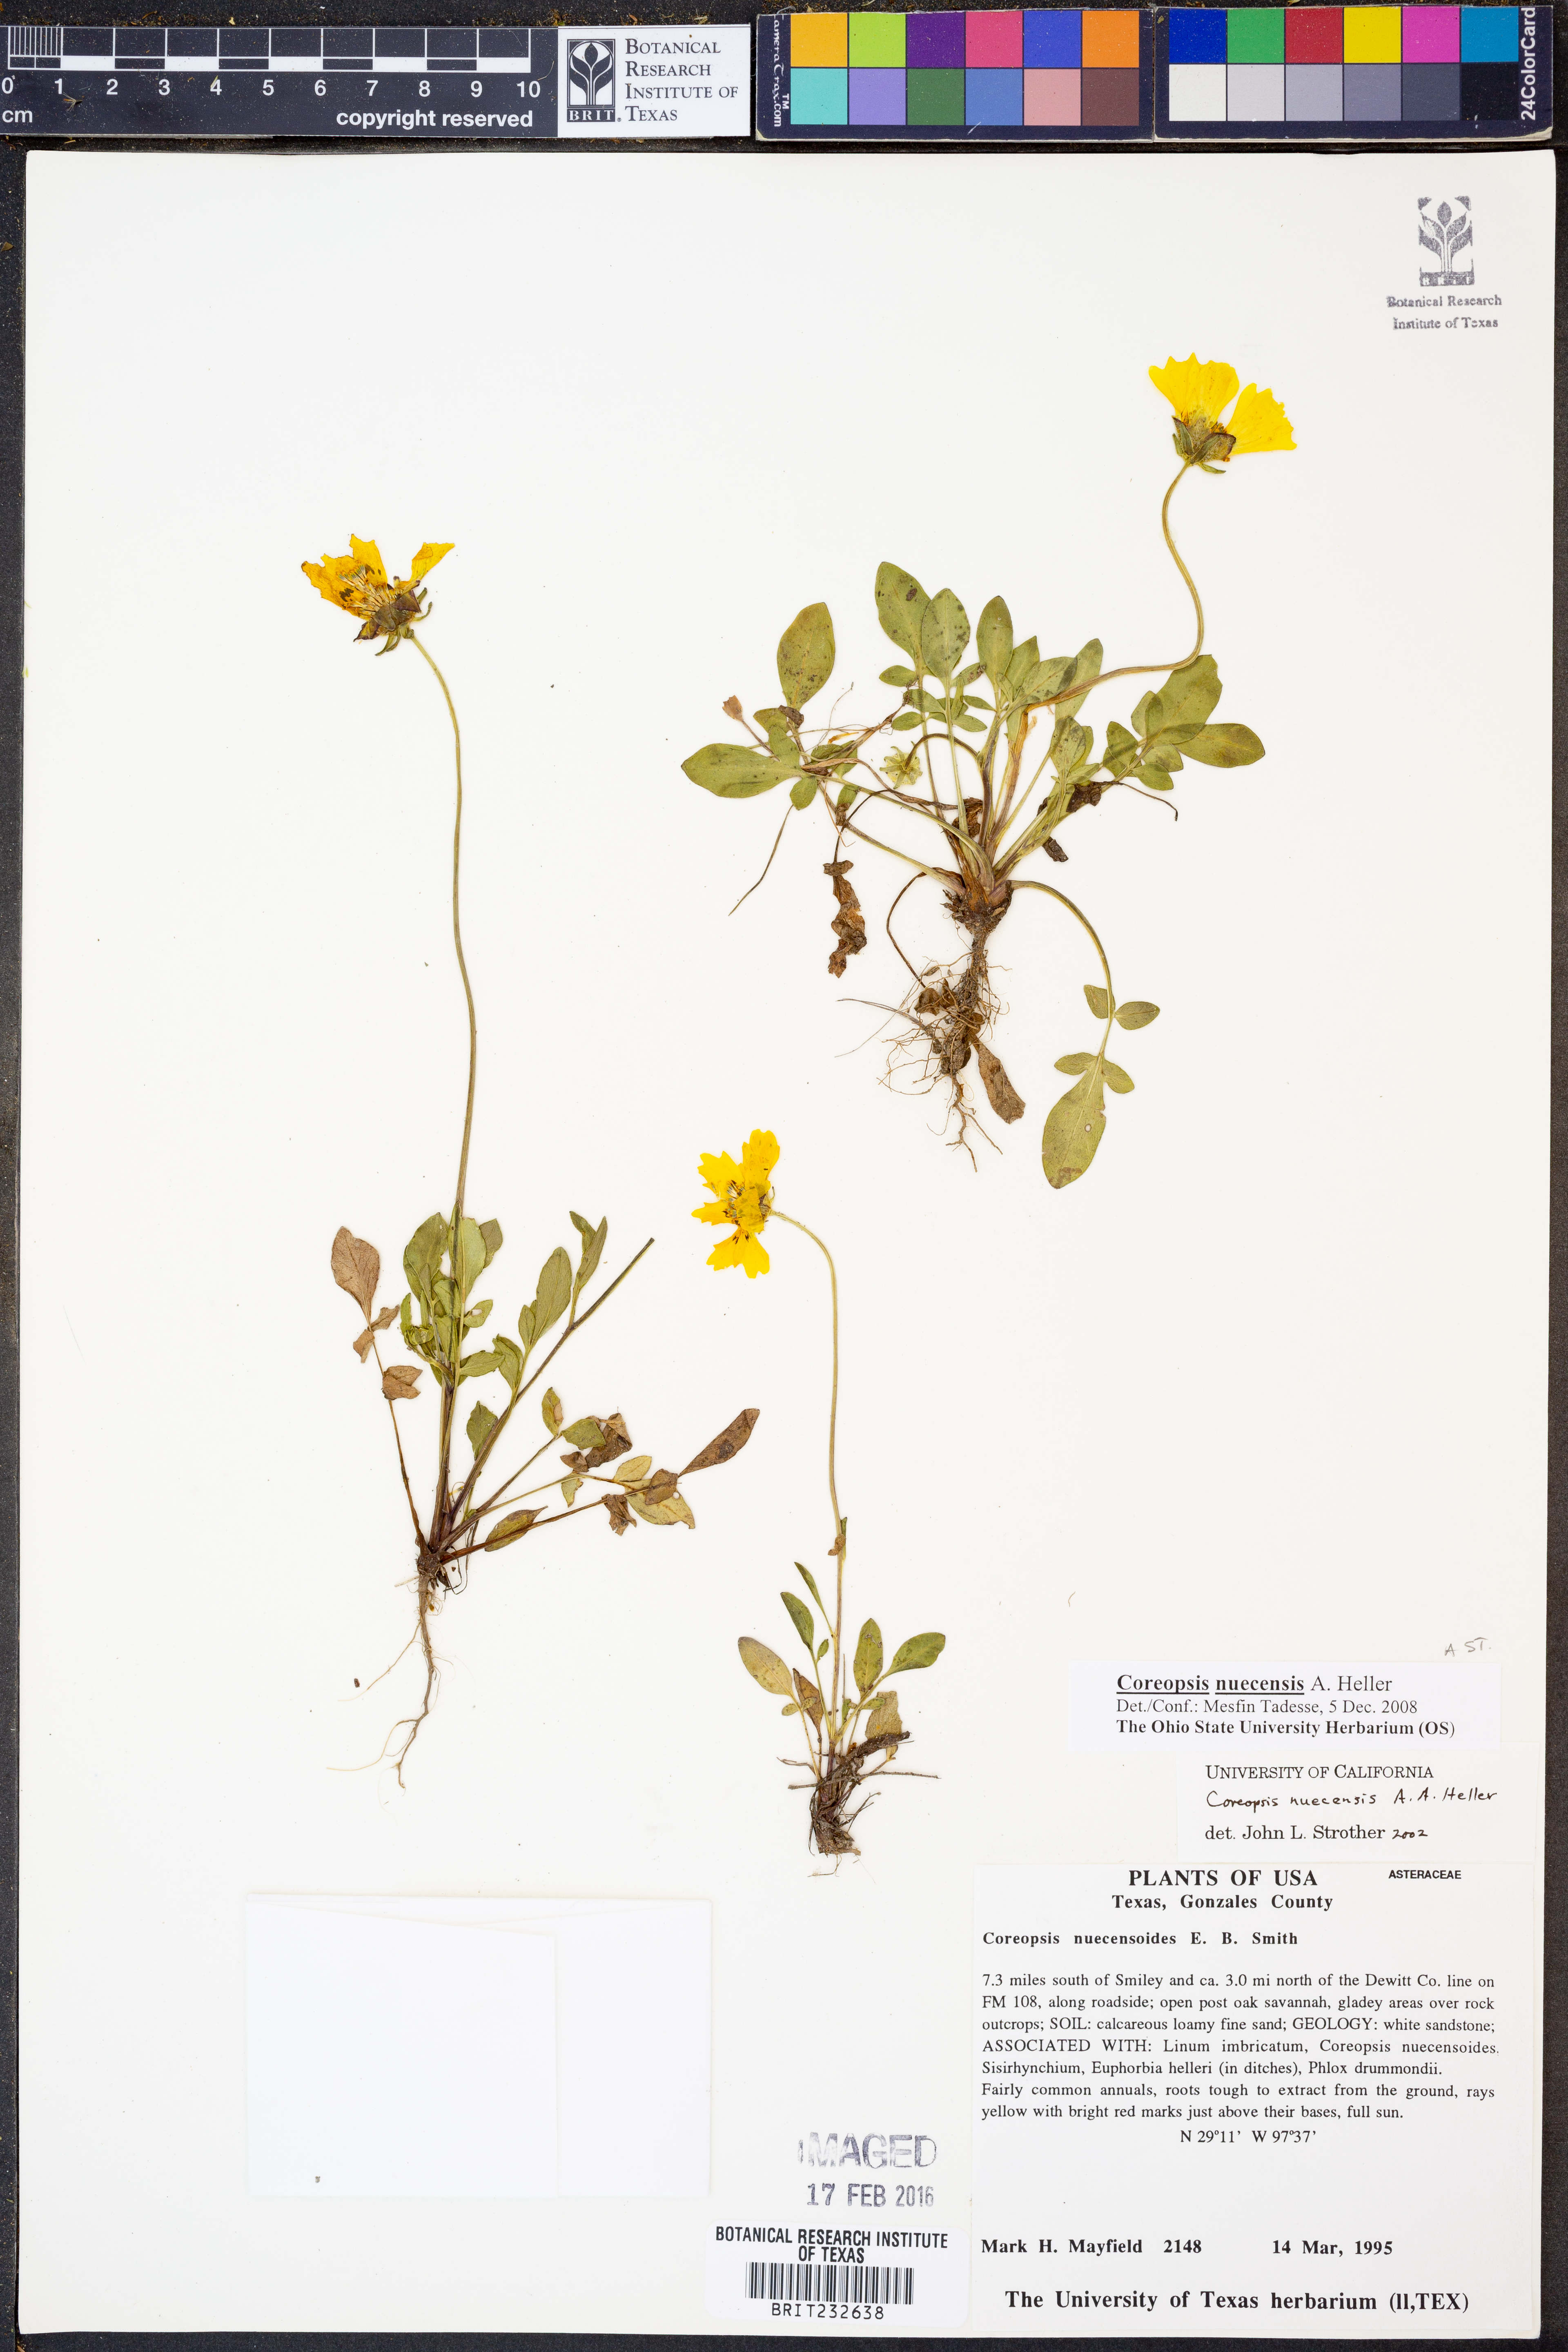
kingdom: Plantae
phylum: Tracheophyta
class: Magnoliopsida
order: Asterales
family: Asteraceae
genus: Coreopsis
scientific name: Coreopsis nuecensis
